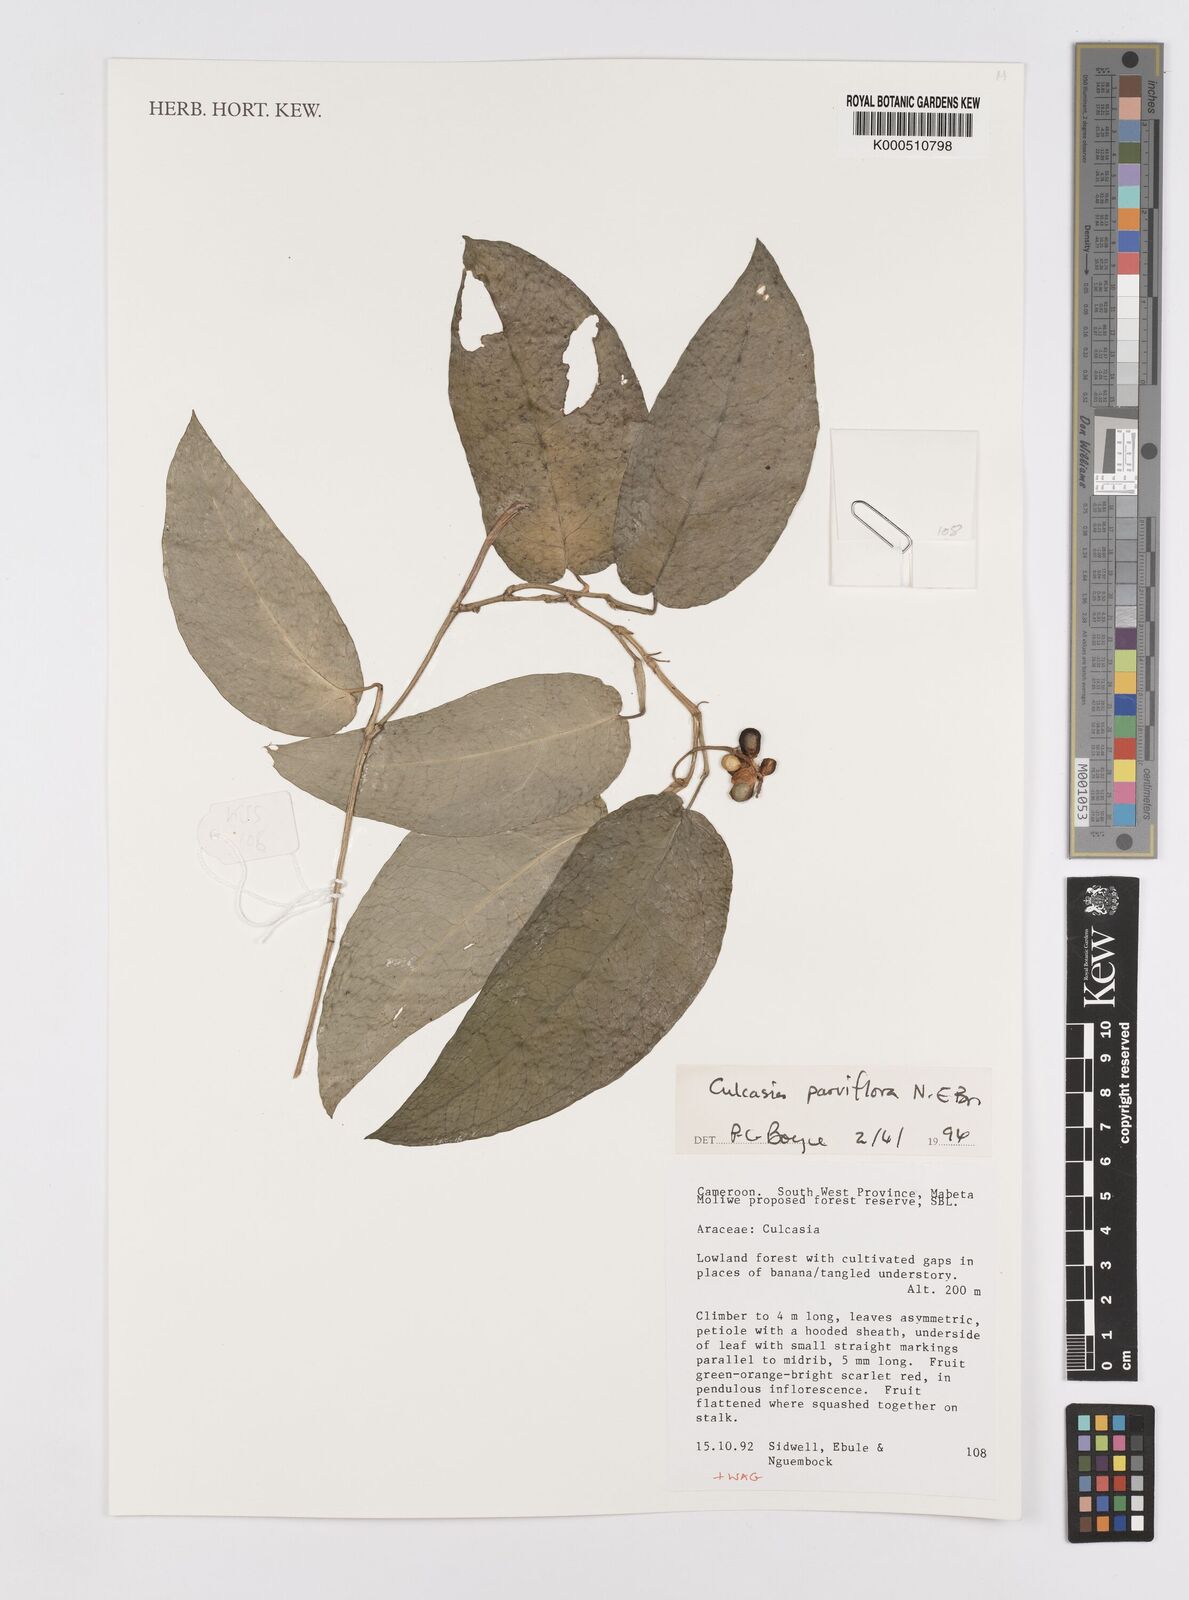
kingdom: Plantae
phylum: Tracheophyta
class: Liliopsida
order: Alismatales
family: Araceae
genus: Culcasia
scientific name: Culcasia parviflora
